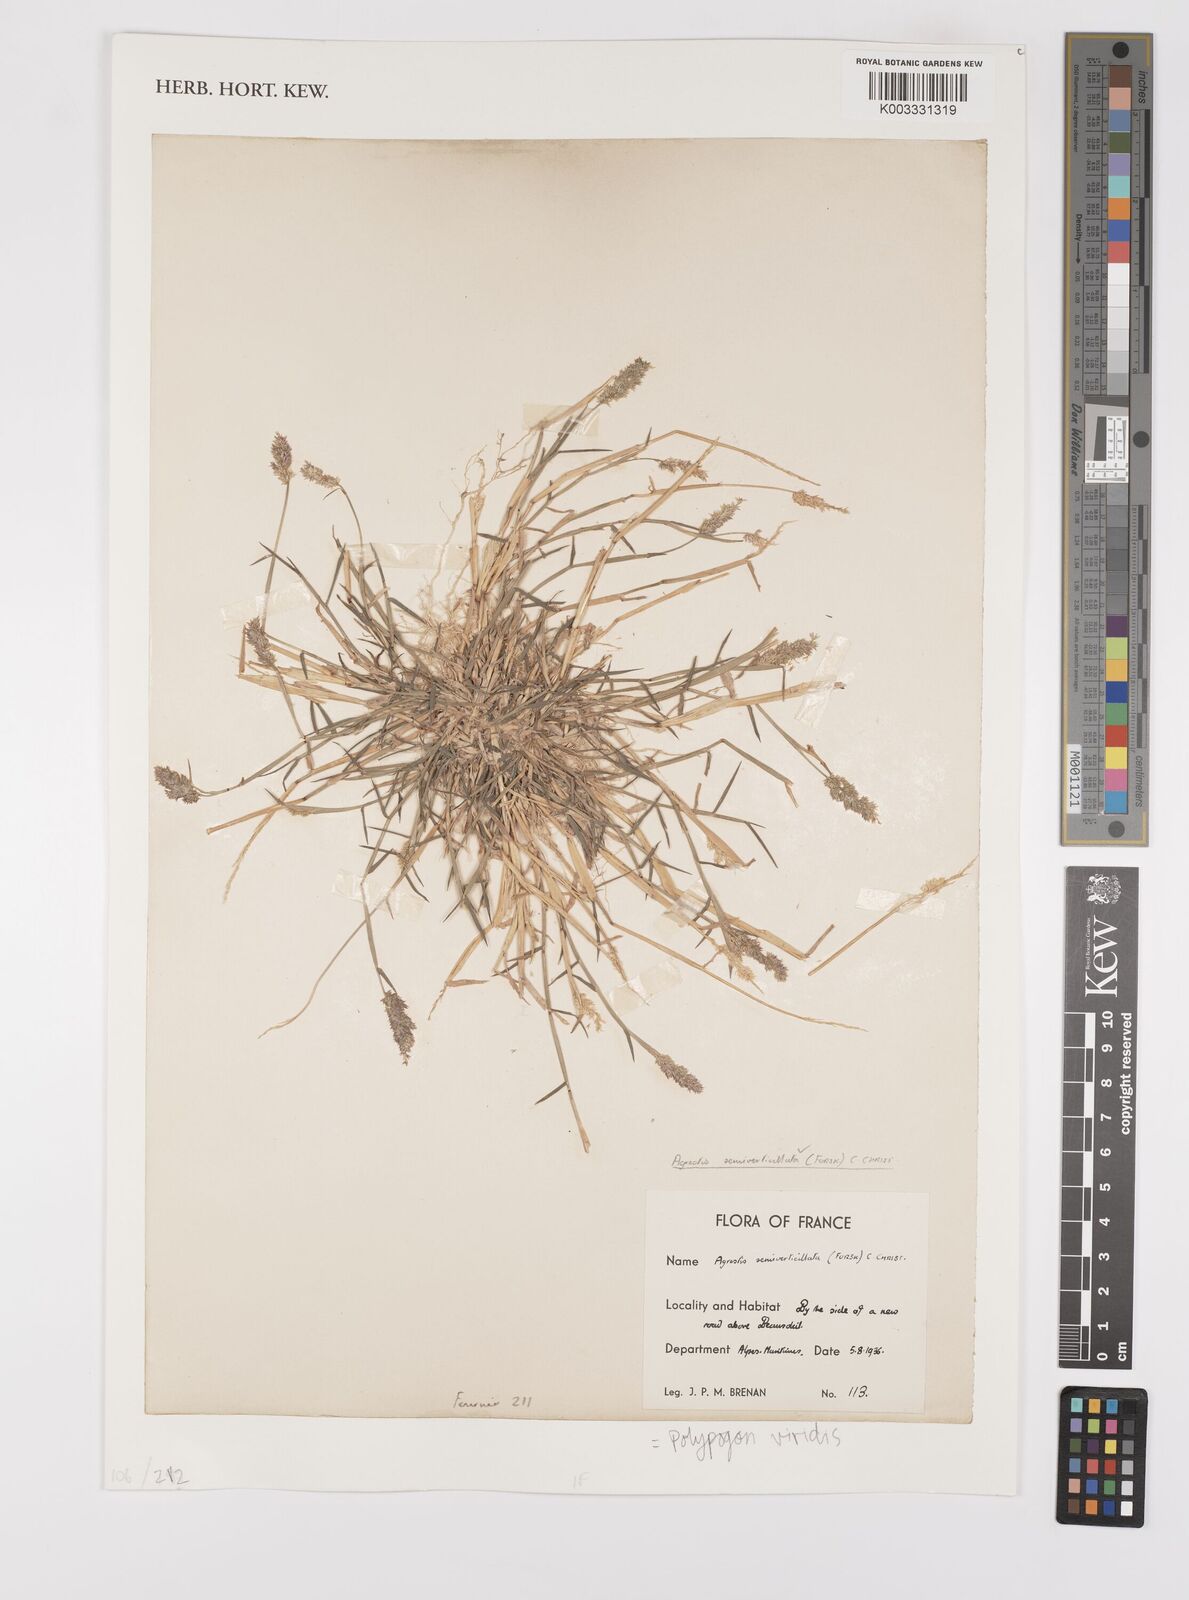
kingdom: Plantae
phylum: Tracheophyta
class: Liliopsida
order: Poales
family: Poaceae
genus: Polypogon
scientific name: Polypogon viridis
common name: Water bent
